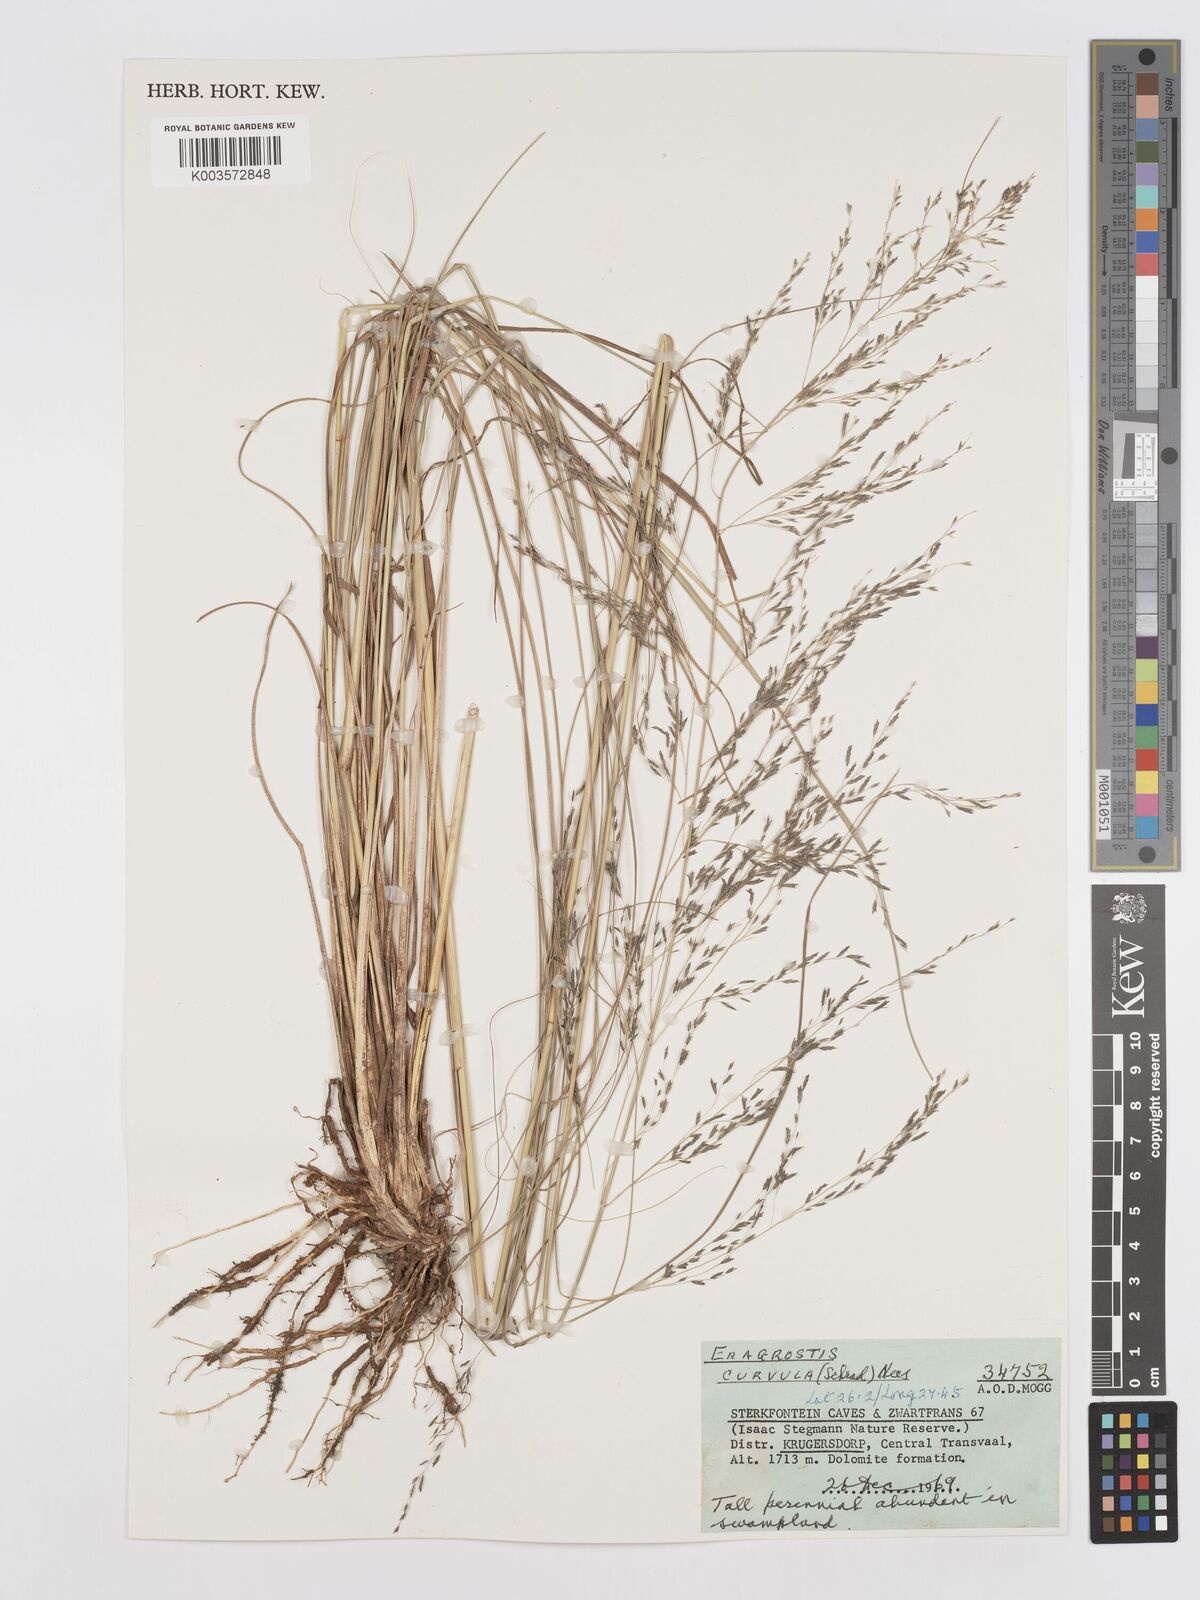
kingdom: Plantae
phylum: Tracheophyta
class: Liliopsida
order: Poales
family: Poaceae
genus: Eragrostis
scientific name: Eragrostis curvula
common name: African love-grass
